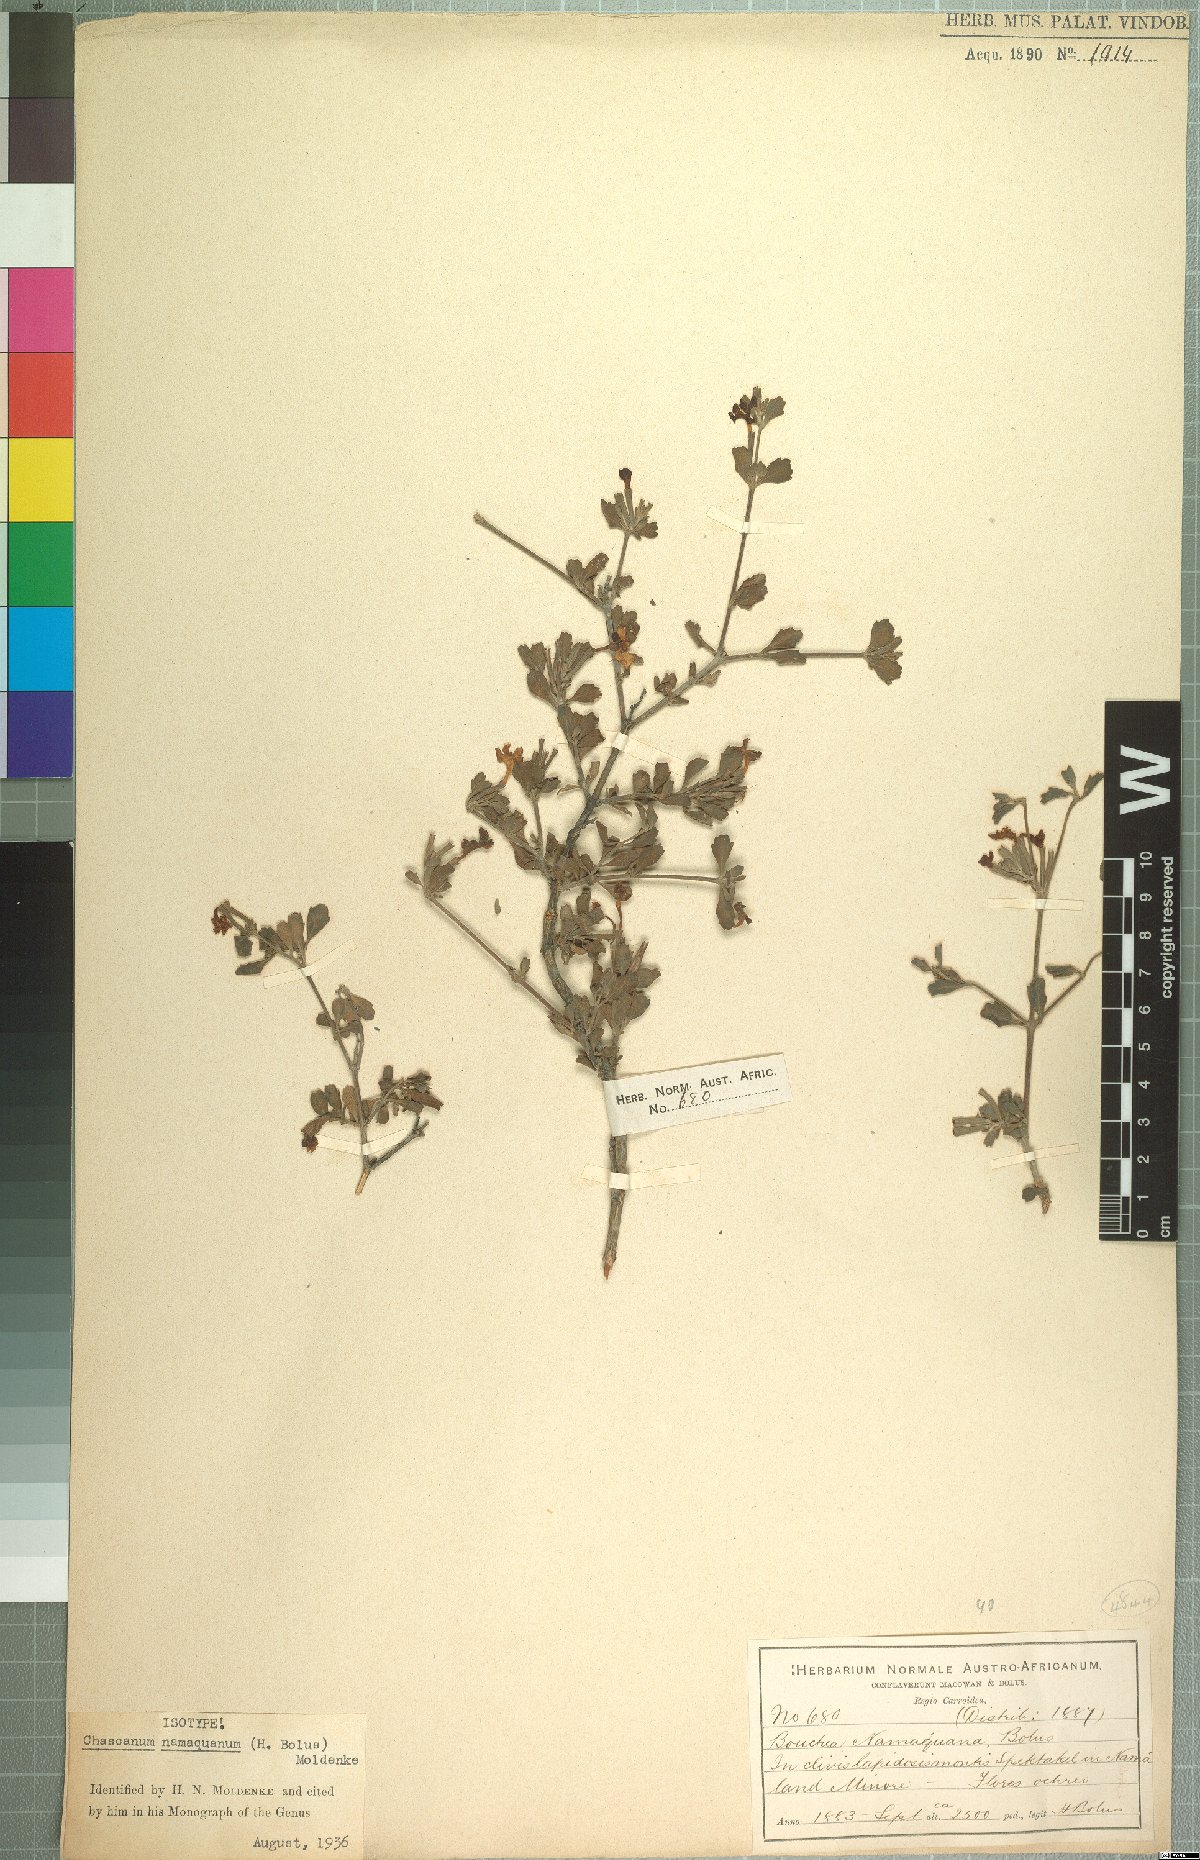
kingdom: Plantae
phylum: Tracheophyta
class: Magnoliopsida
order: Lamiales
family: Verbenaceae
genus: Chascanum
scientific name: Chascanum namaquanum
